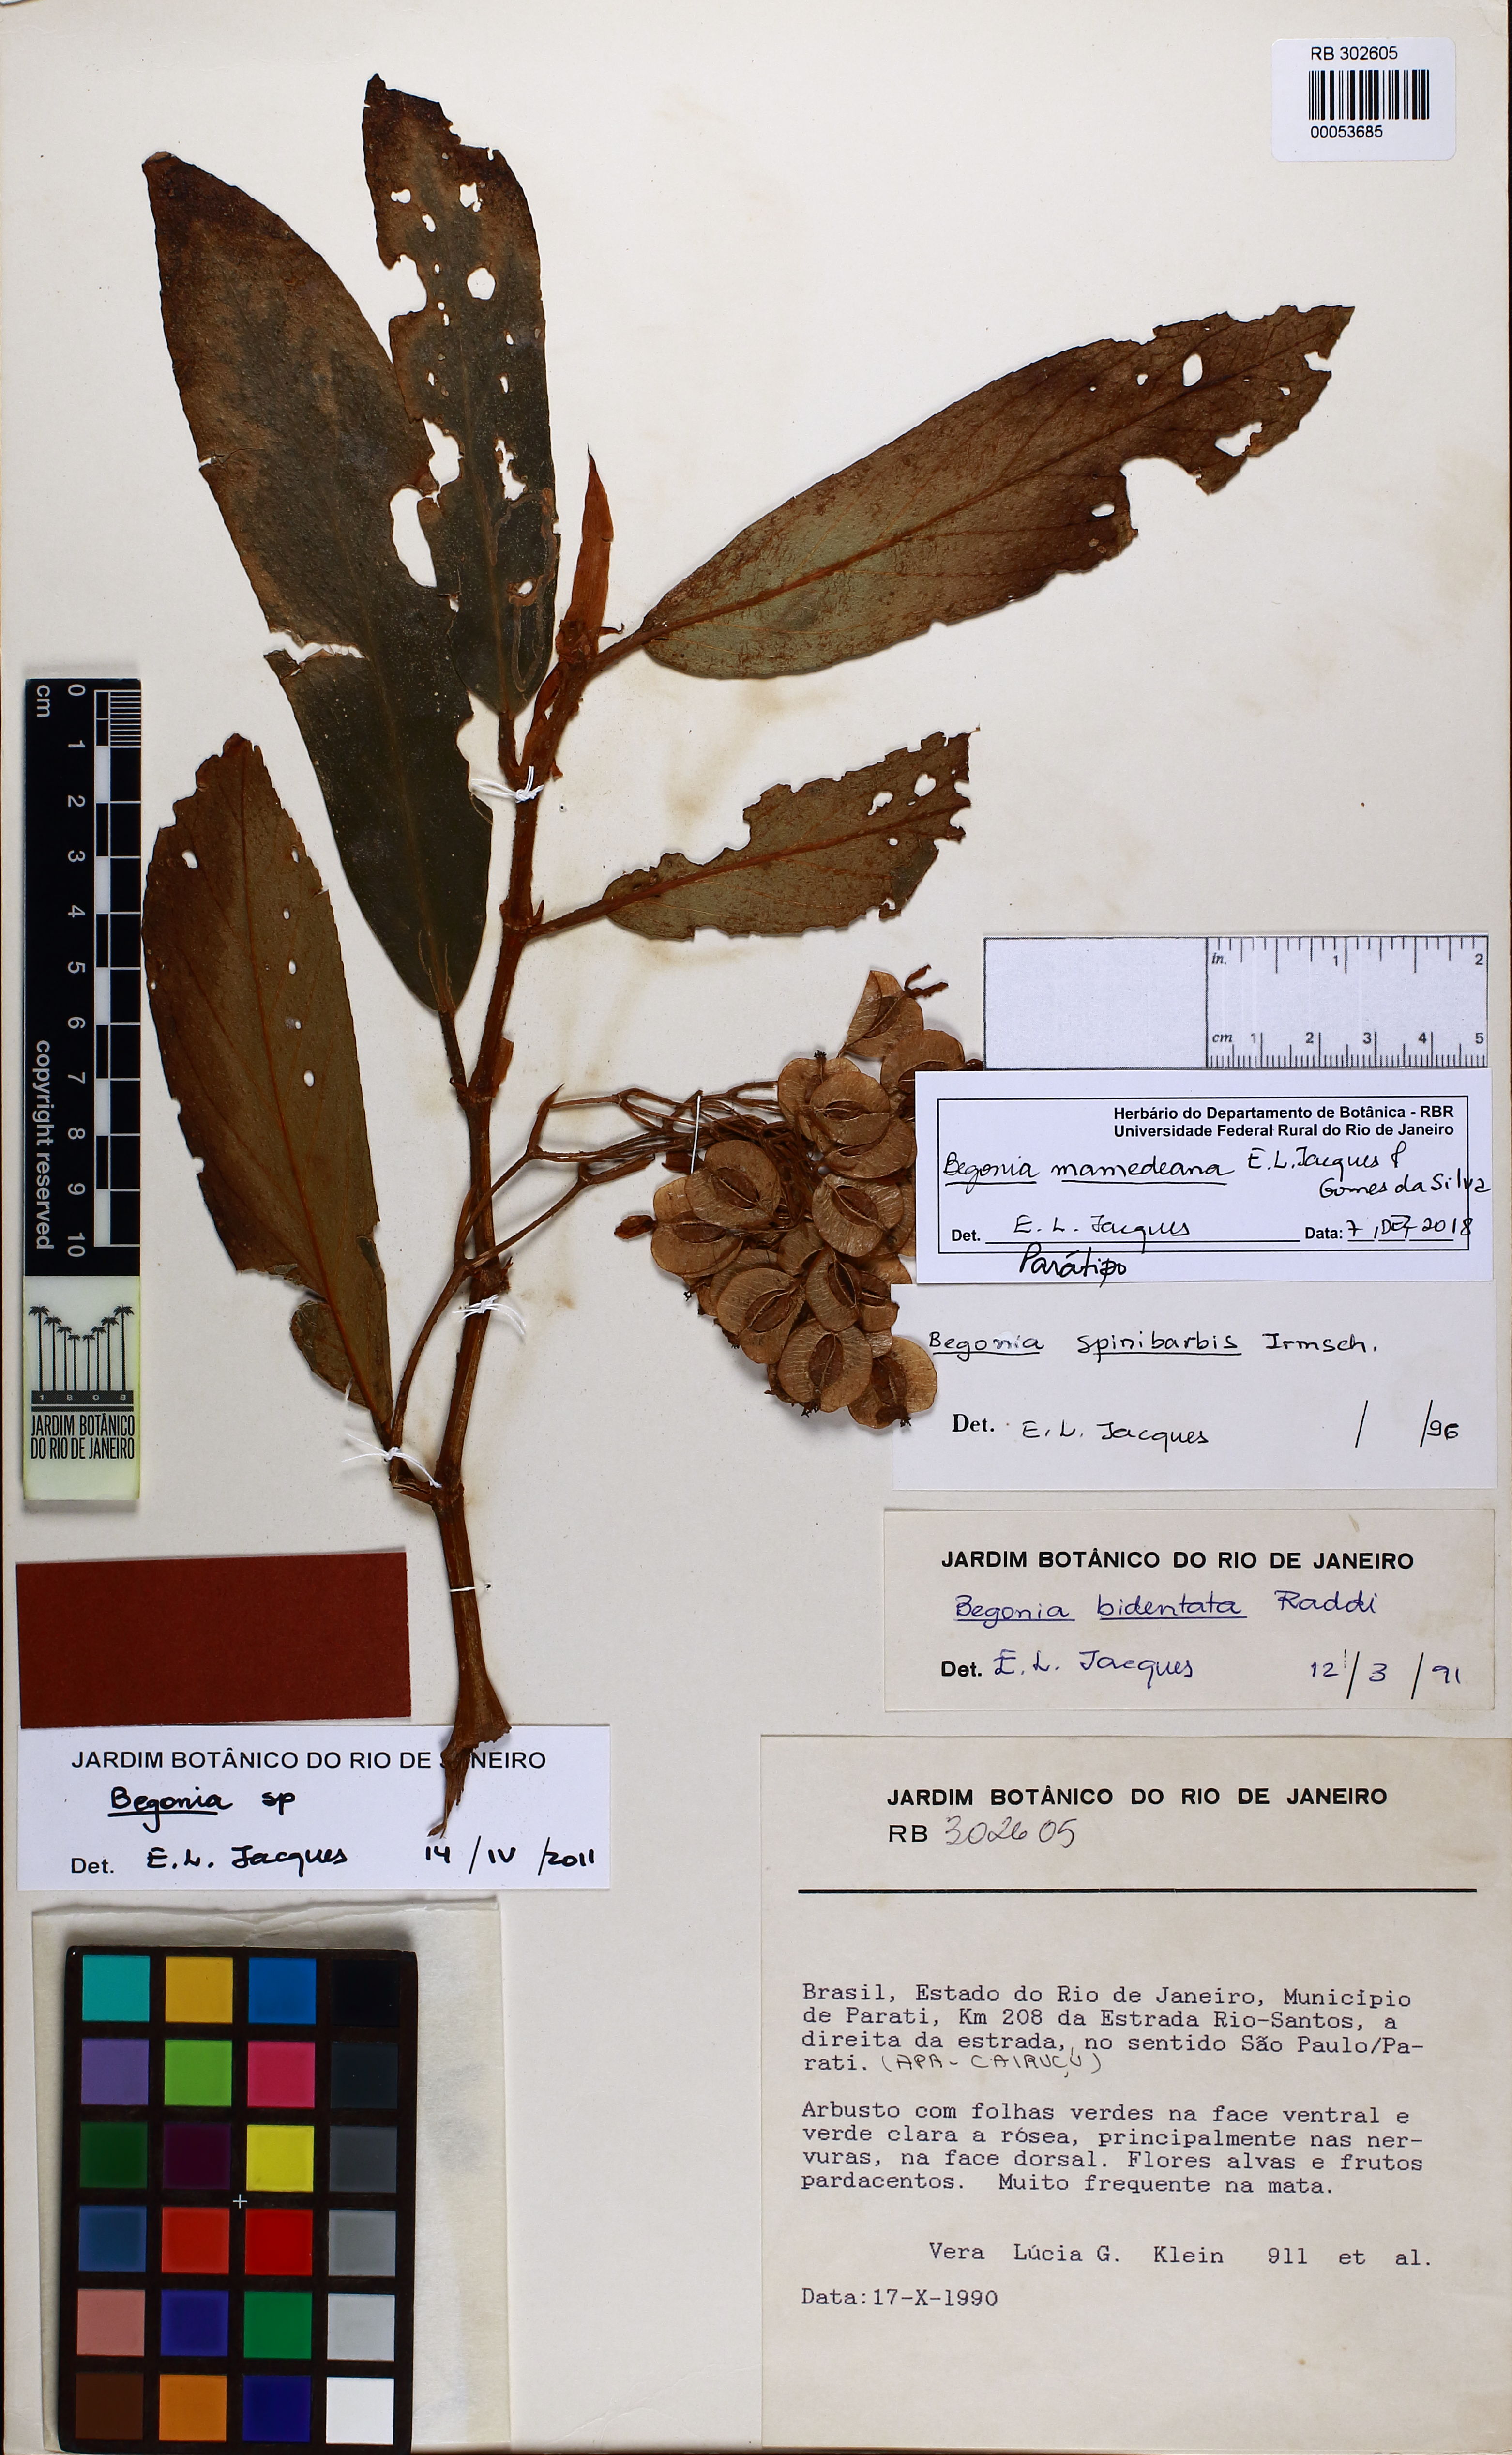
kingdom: Plantae
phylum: Tracheophyta
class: Magnoliopsida
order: Cucurbitales
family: Begoniaceae
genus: Begonia
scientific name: Begonia mamedeana
